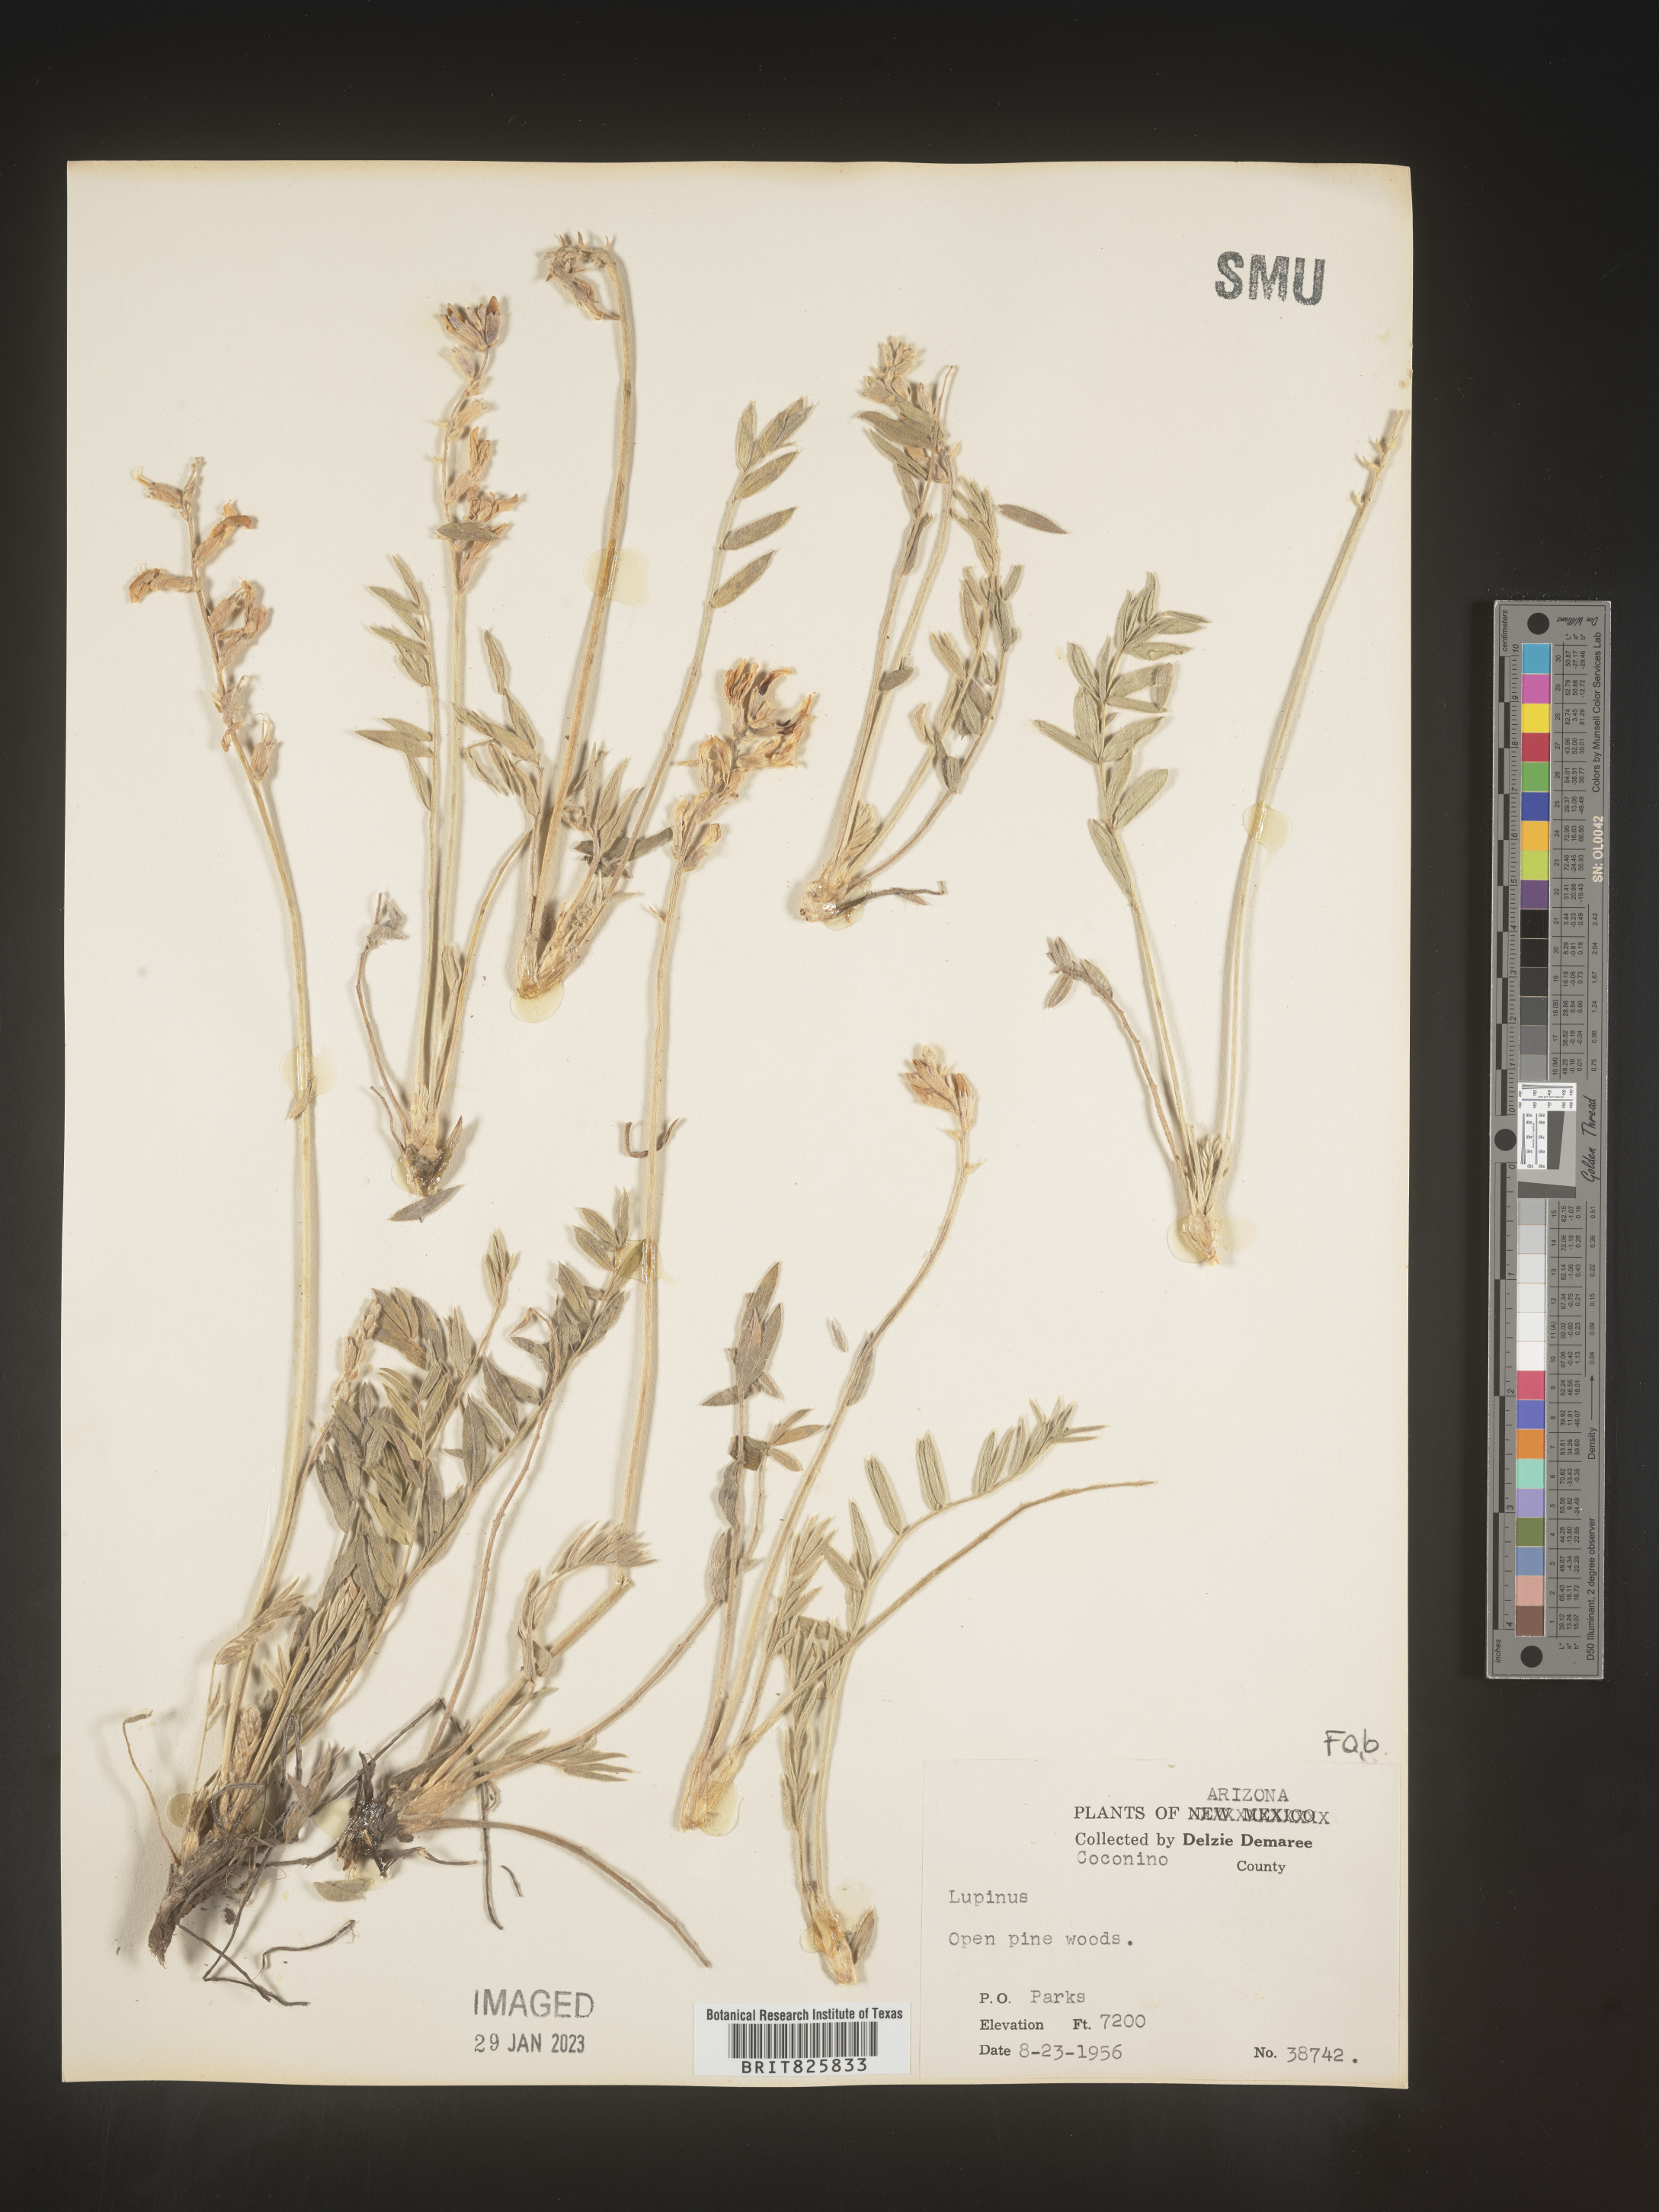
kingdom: Plantae
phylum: Tracheophyta
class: Magnoliopsida
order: Fabales
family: Fabaceae
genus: Lupinus
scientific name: Lupinus
